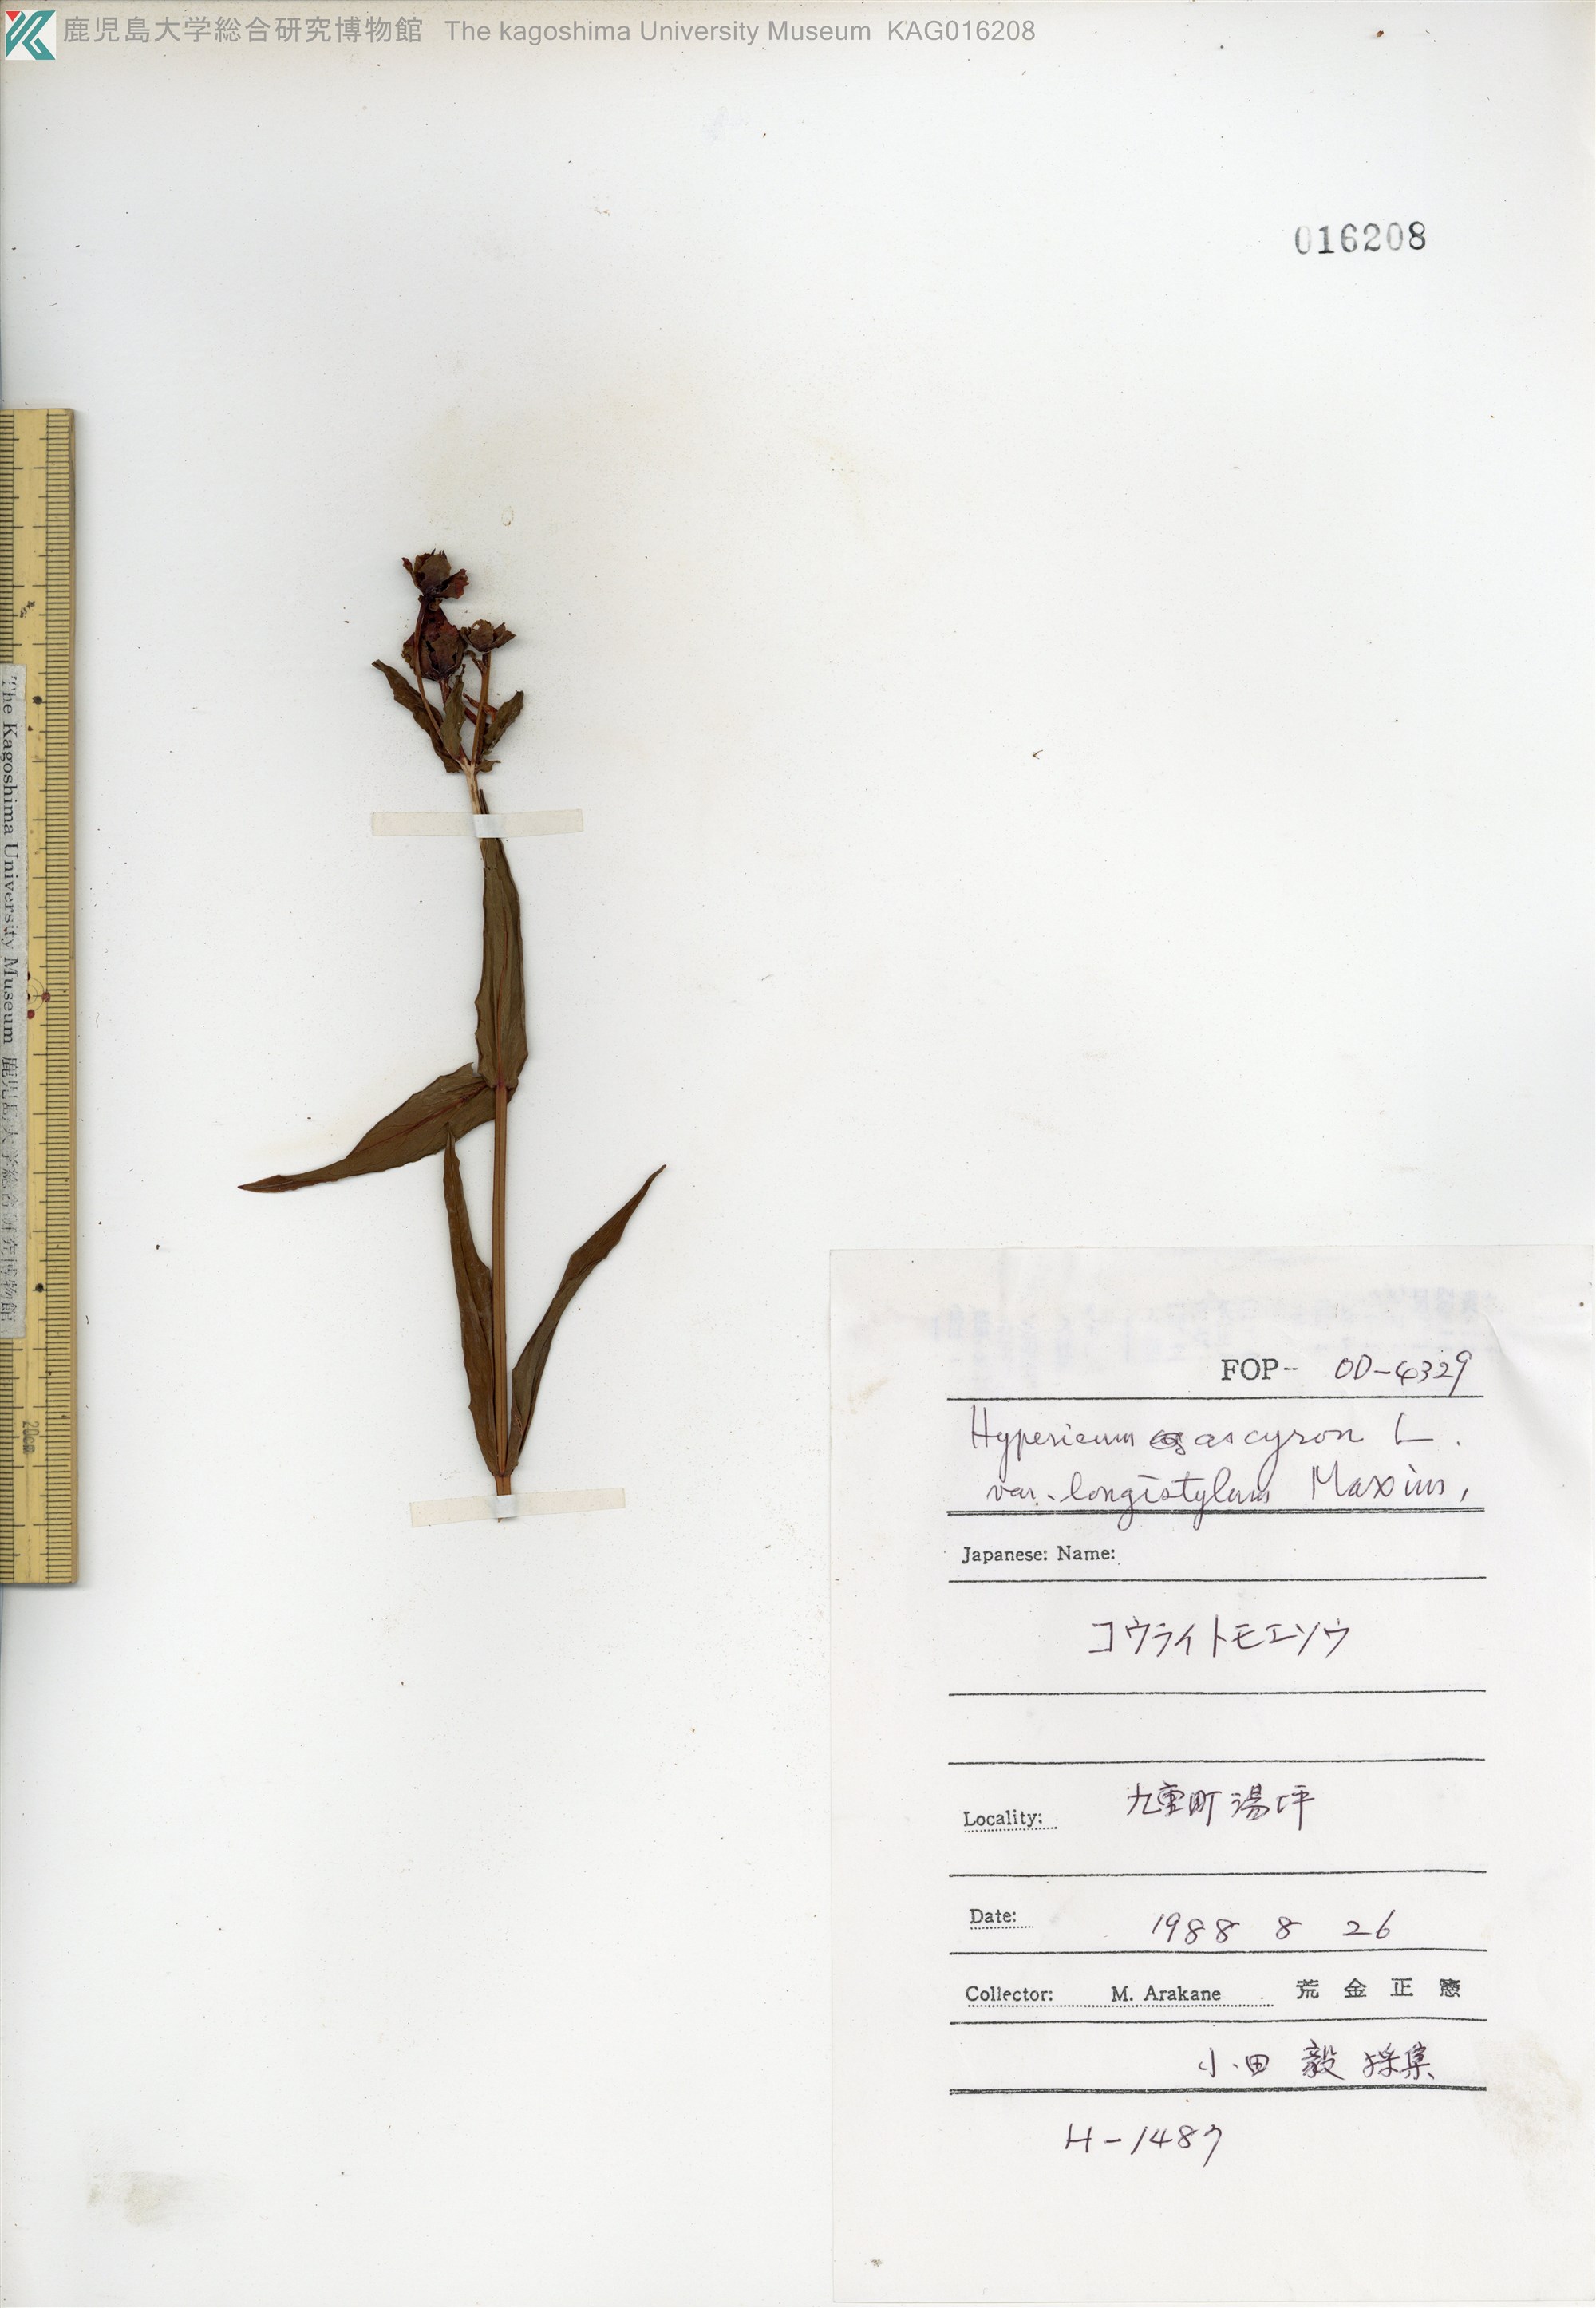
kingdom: Plantae
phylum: Tracheophyta
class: Magnoliopsida
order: Malpighiales
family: Hypericaceae
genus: Hypericum
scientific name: Hypericum ascyron
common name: Giant st. john's-wort
